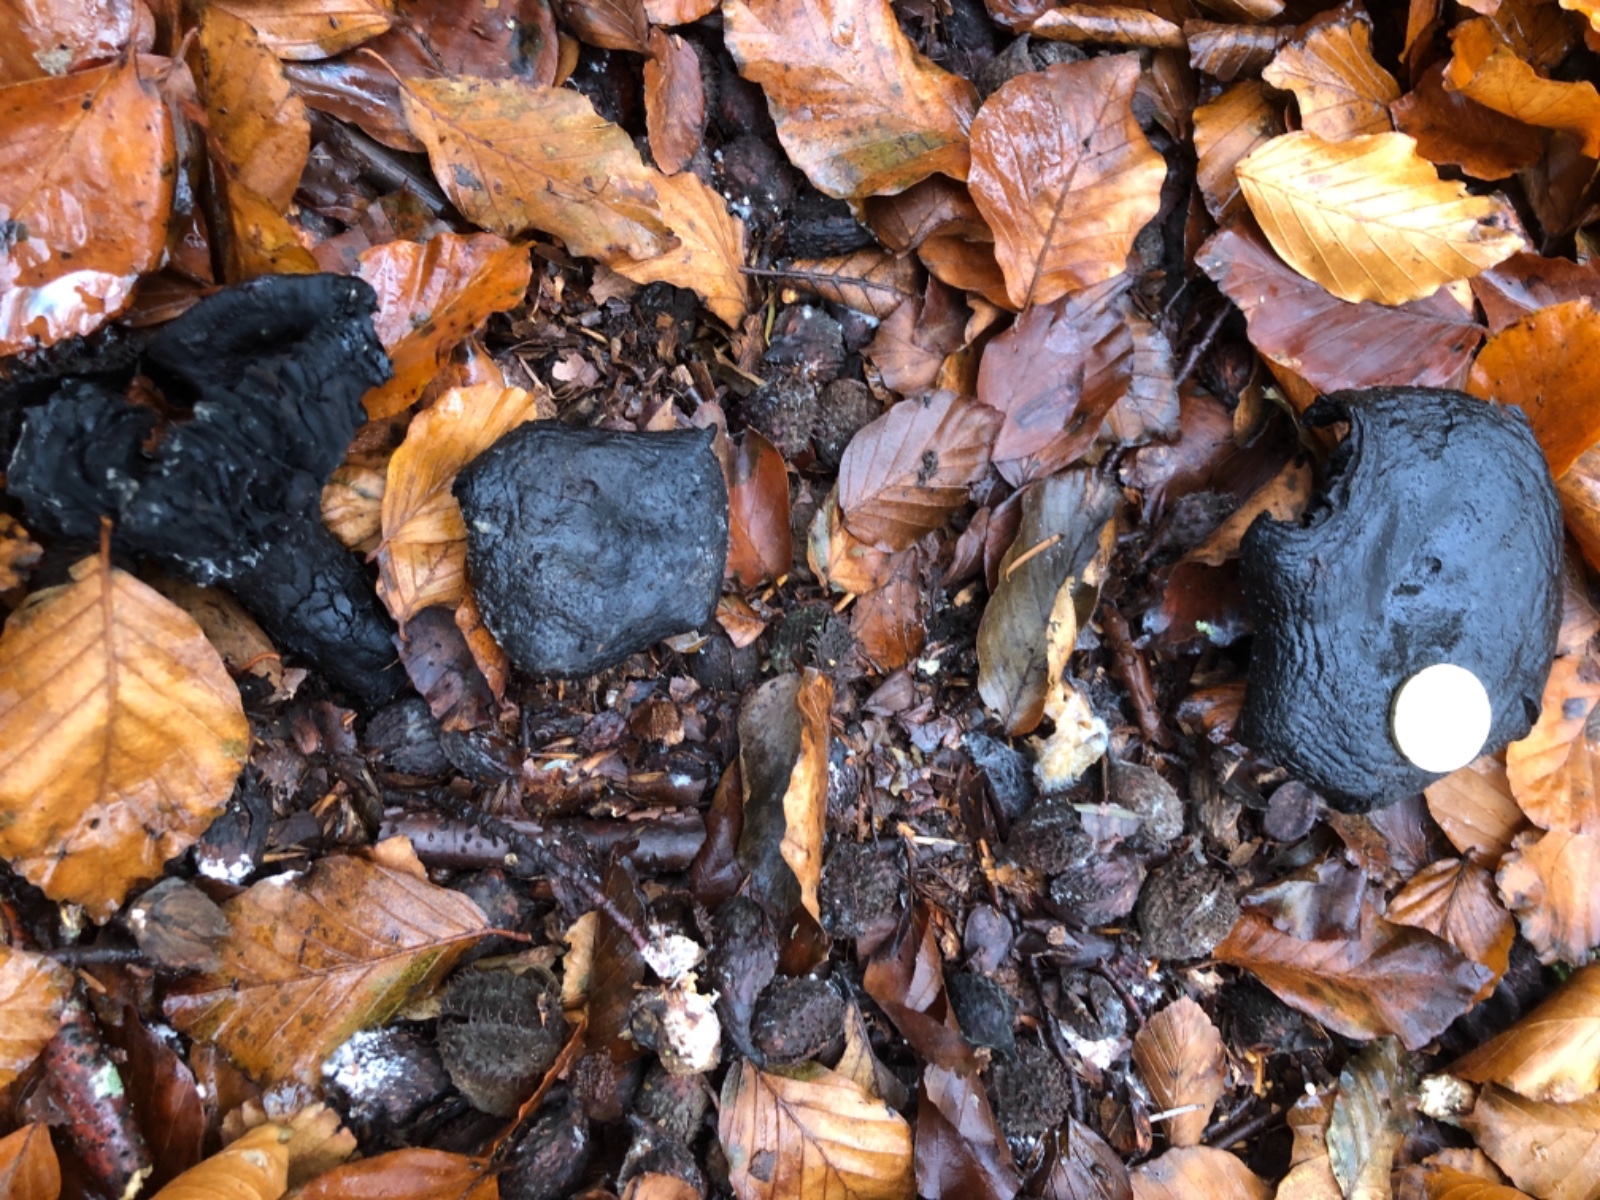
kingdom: Fungi
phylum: Basidiomycota
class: Agaricomycetes
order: Russulales
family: Russulaceae
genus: Russula
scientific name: Russula adusta
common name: sværtende skørhat
